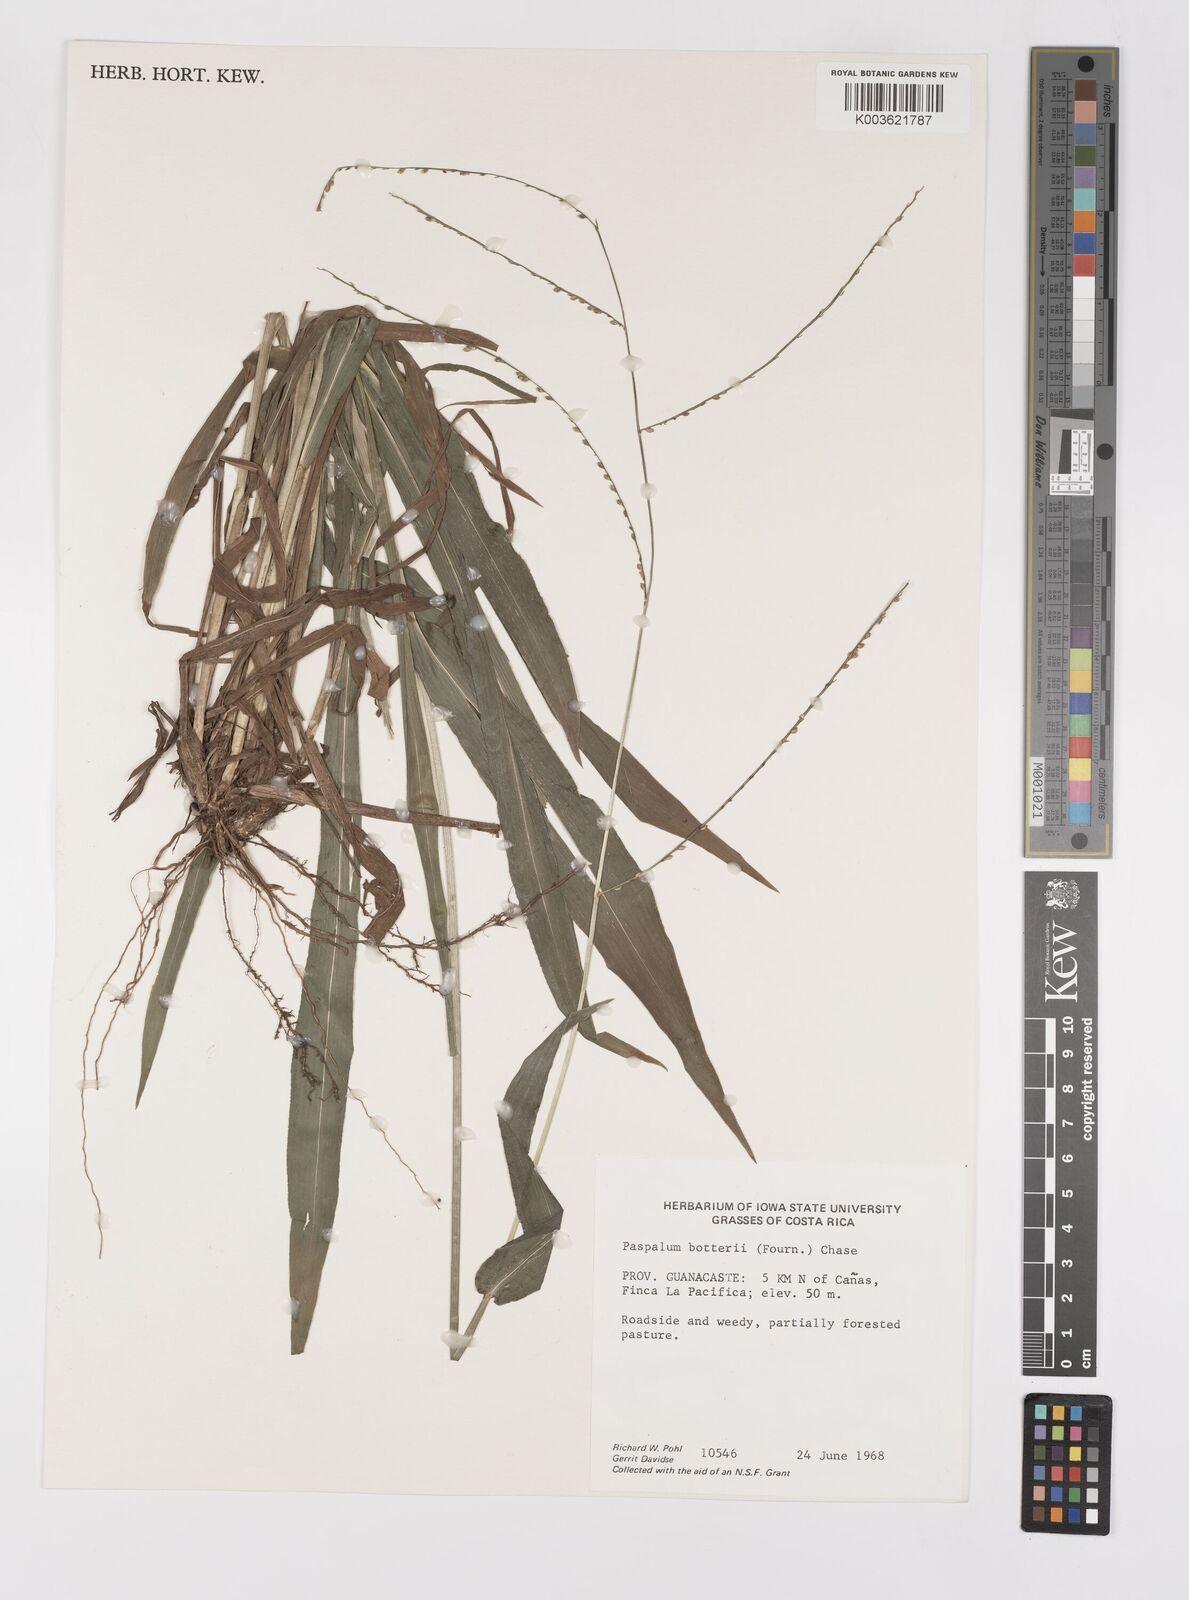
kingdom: Plantae
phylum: Tracheophyta
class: Liliopsida
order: Poales
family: Poaceae
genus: Paspalum
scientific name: Paspalum botterii
